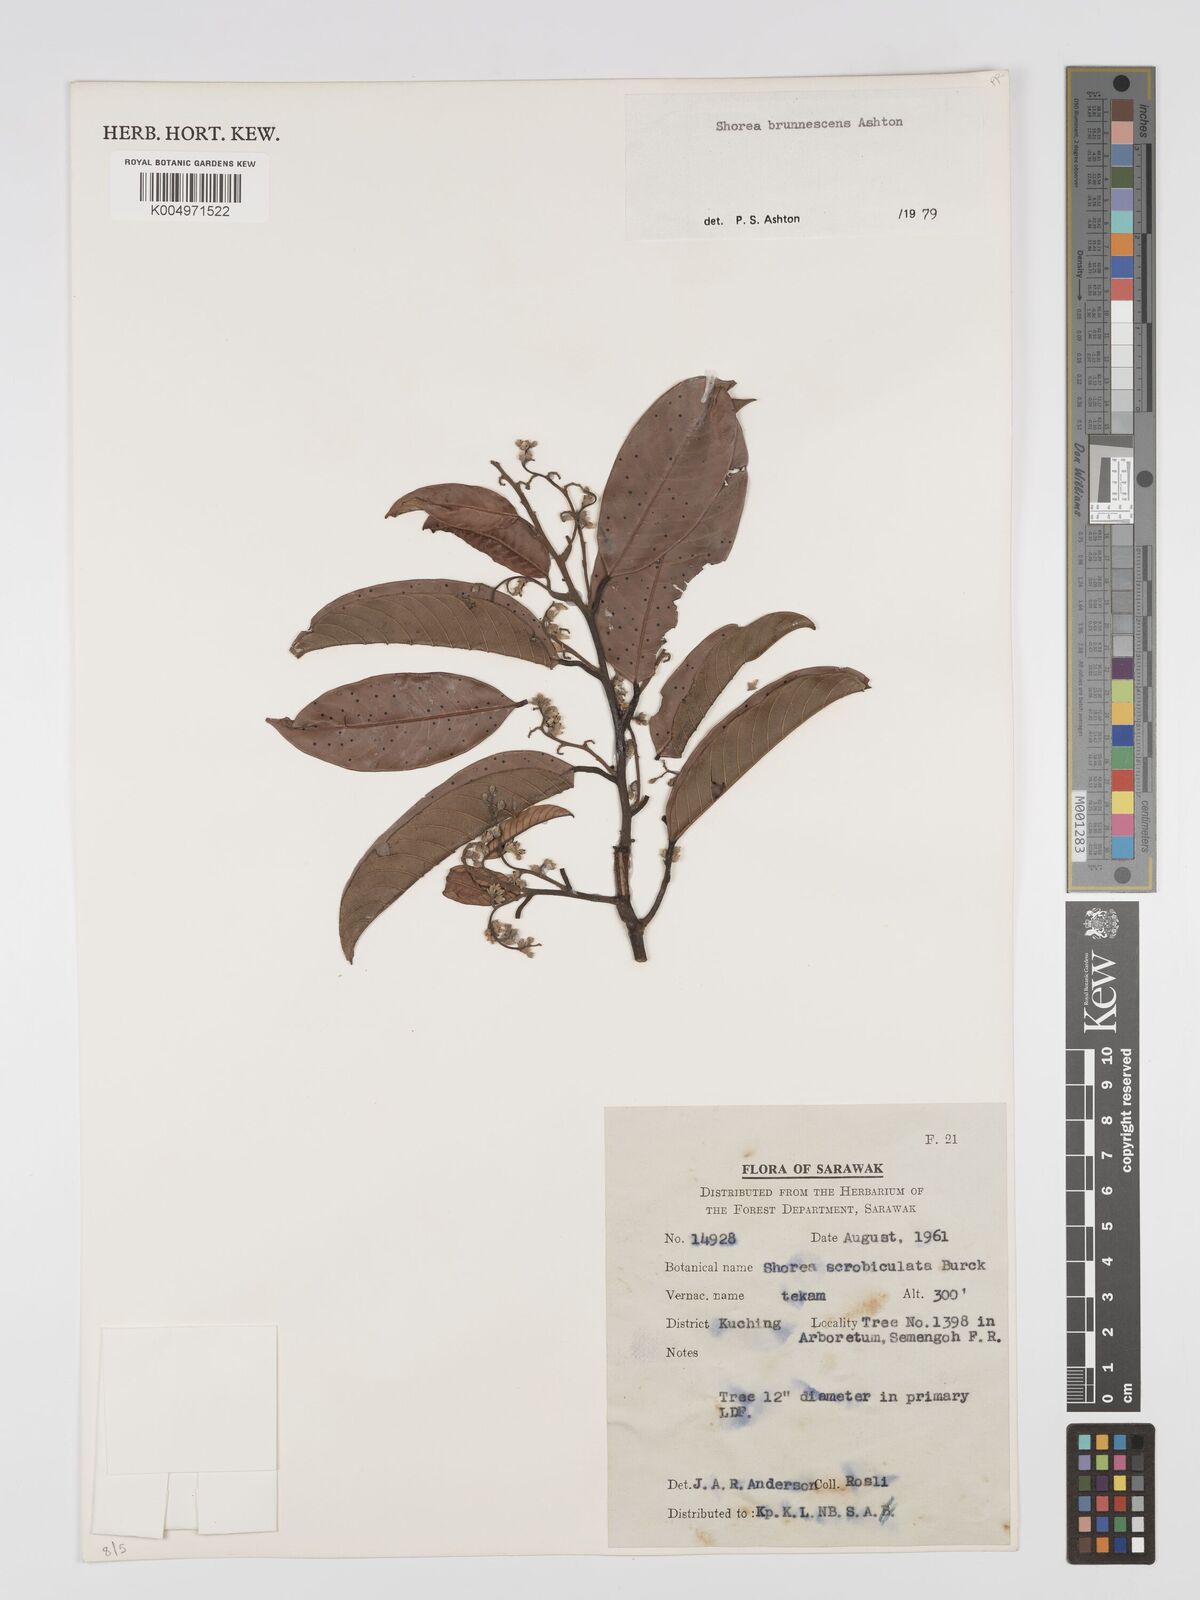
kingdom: Plantae
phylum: Tracheophyta
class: Magnoliopsida
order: Malvales
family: Dipterocarpaceae
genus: Shorea
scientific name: Shorea brunnescens
